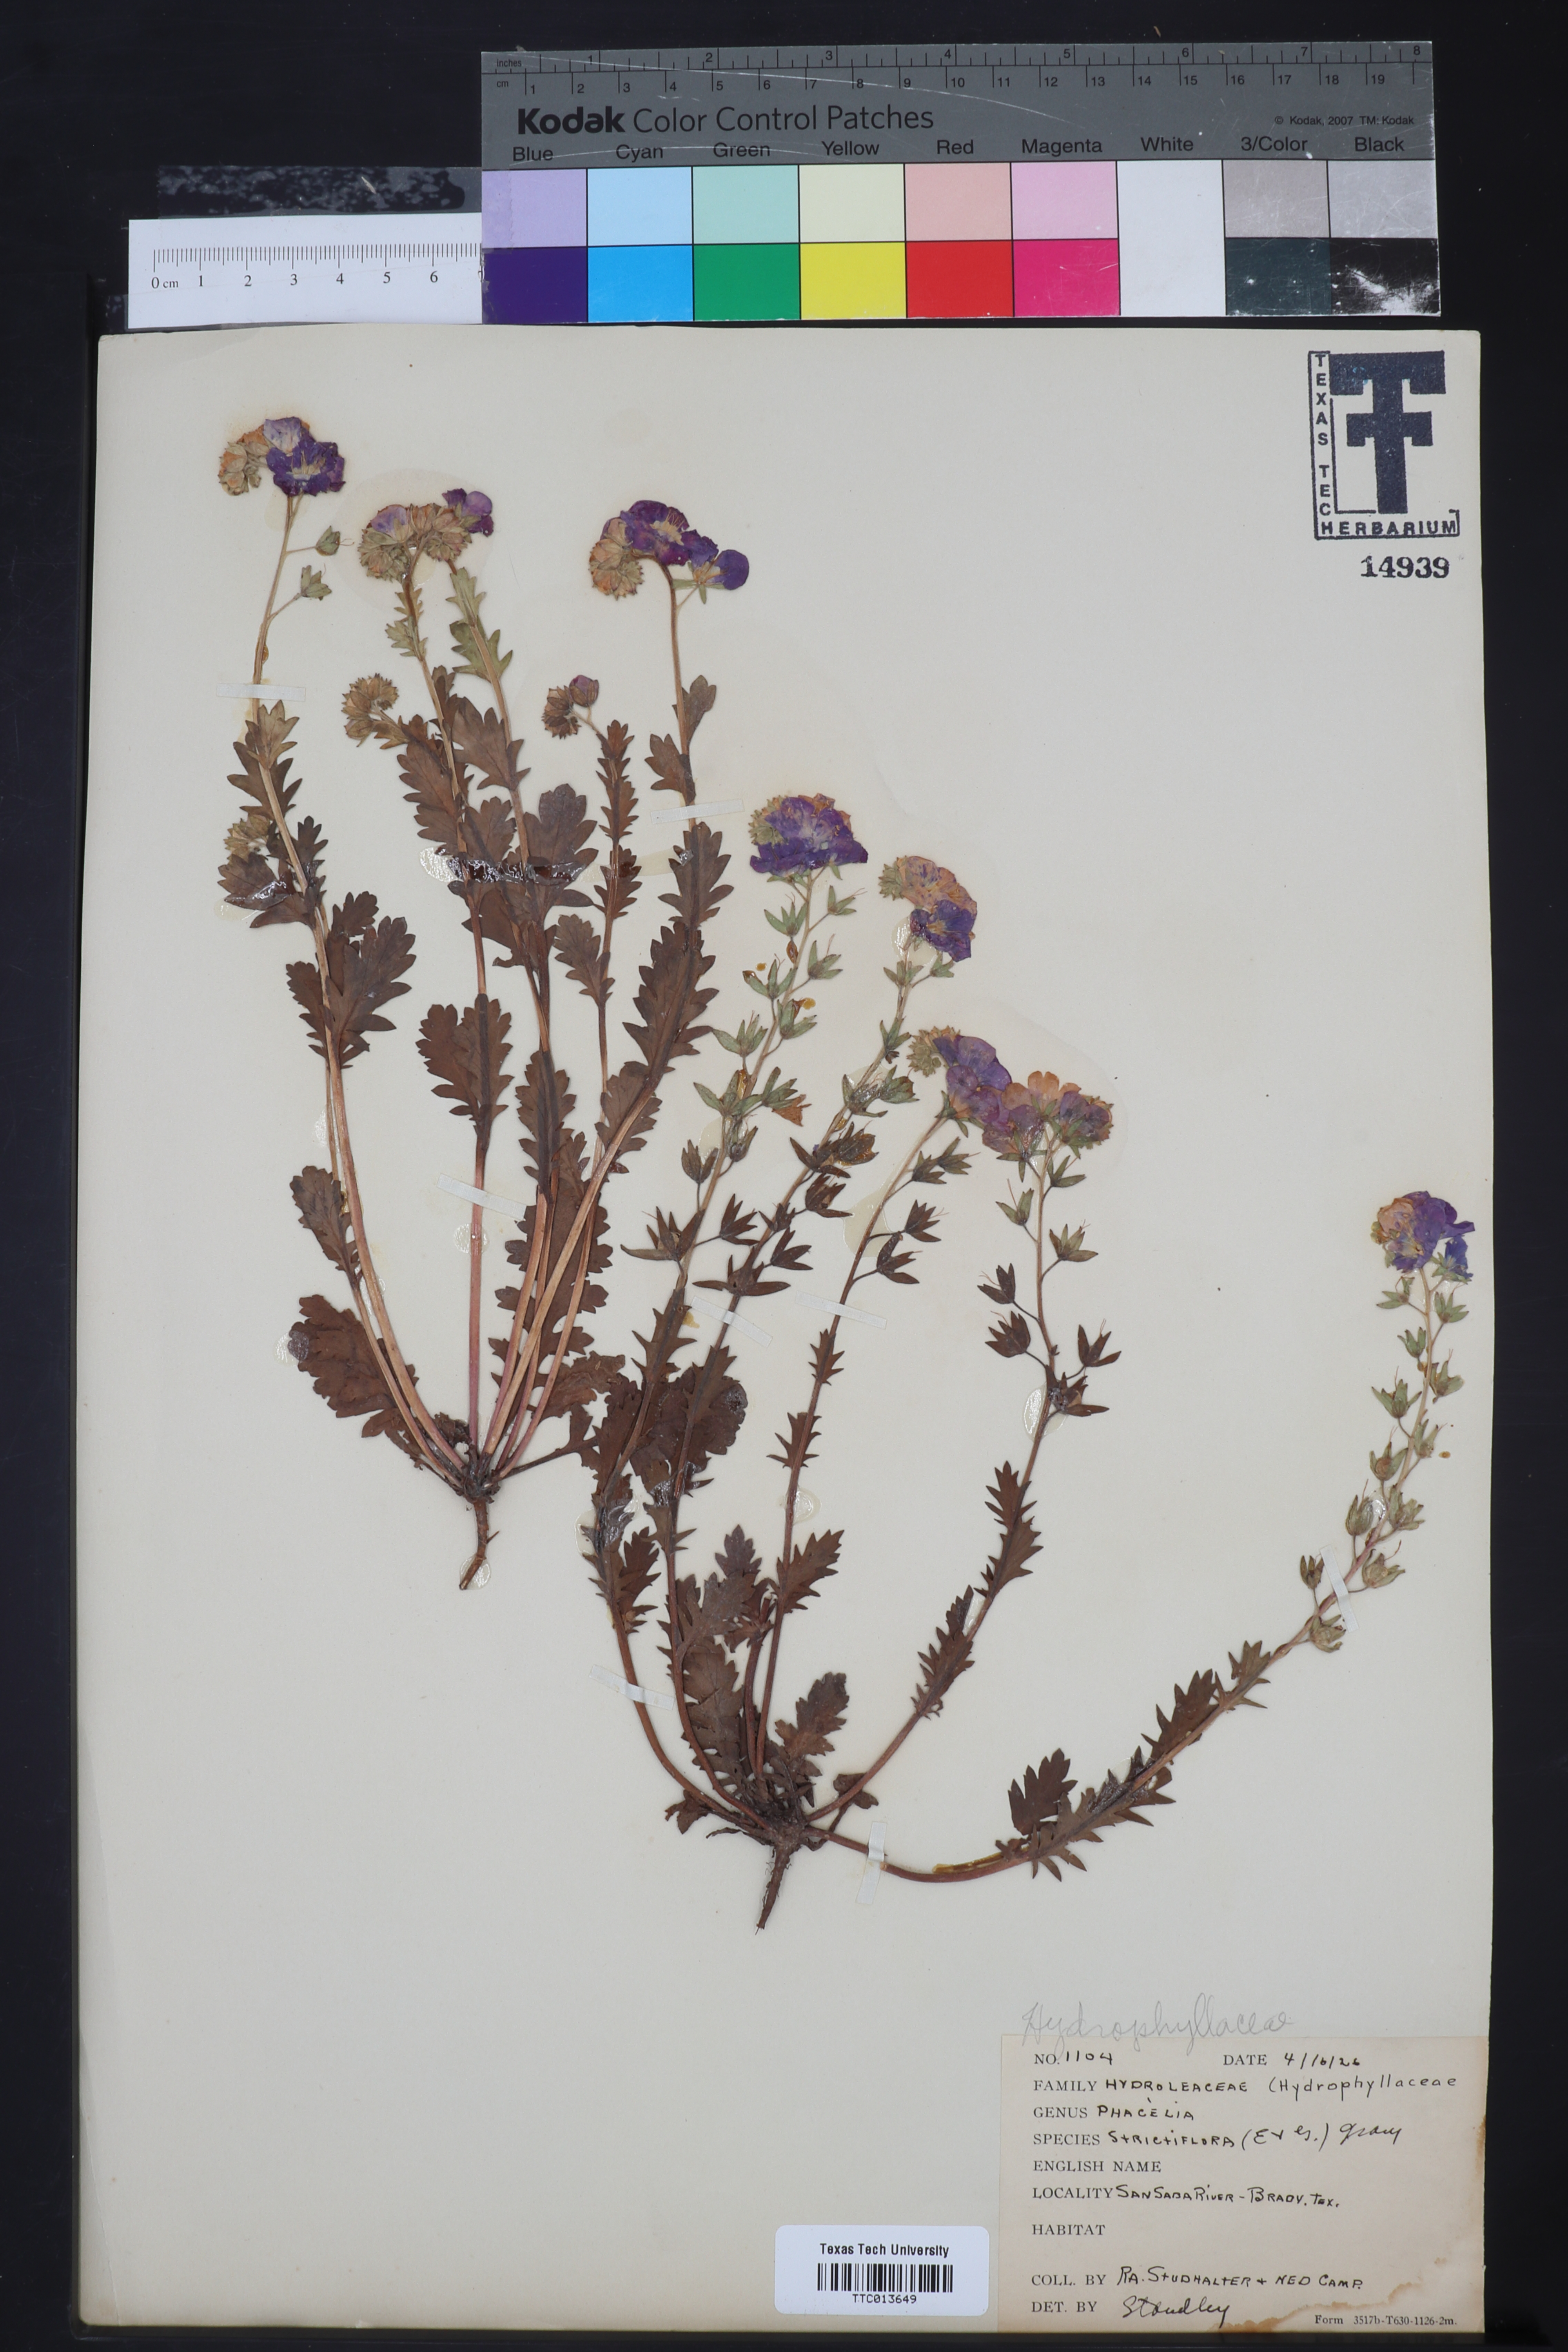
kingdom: Plantae
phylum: Tracheophyta
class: Magnoliopsida
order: Boraginales
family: Hydrophyllaceae
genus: Phacelia
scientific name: Phacelia strictiflora
